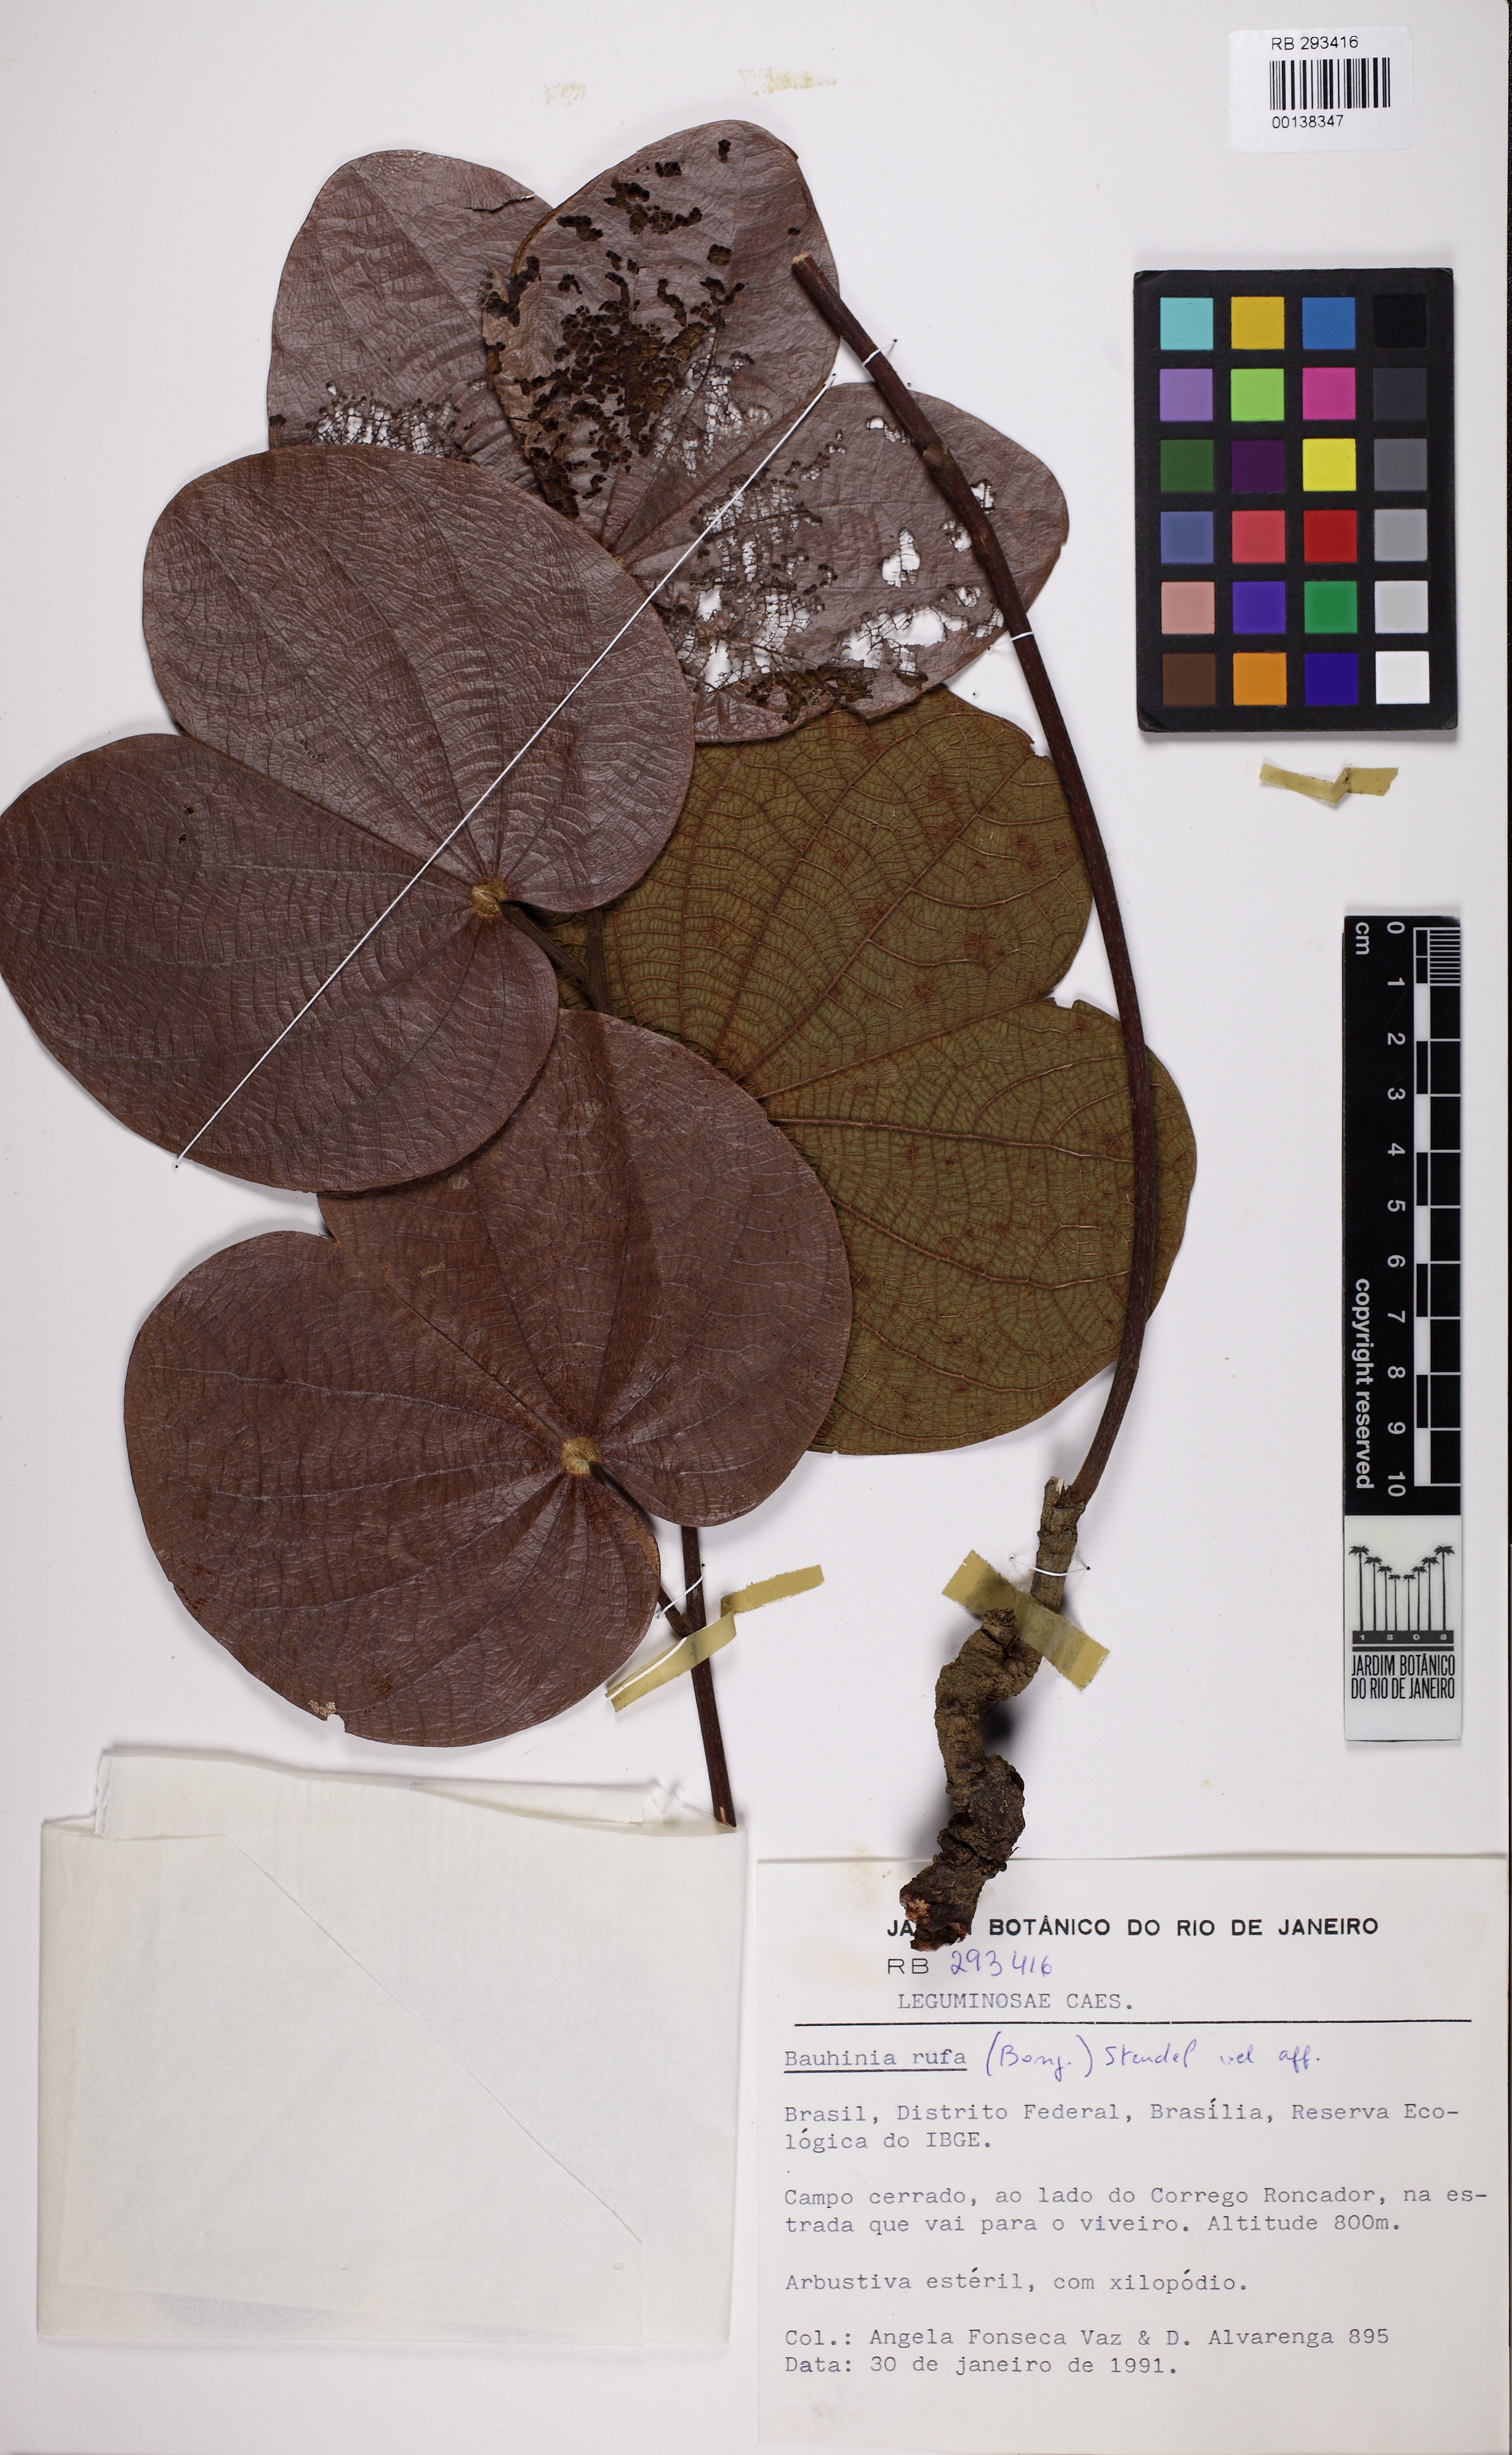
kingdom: Plantae
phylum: Tracheophyta
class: Magnoliopsida
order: Fabales
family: Fabaceae
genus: Bauhinia
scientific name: Bauhinia rufa
